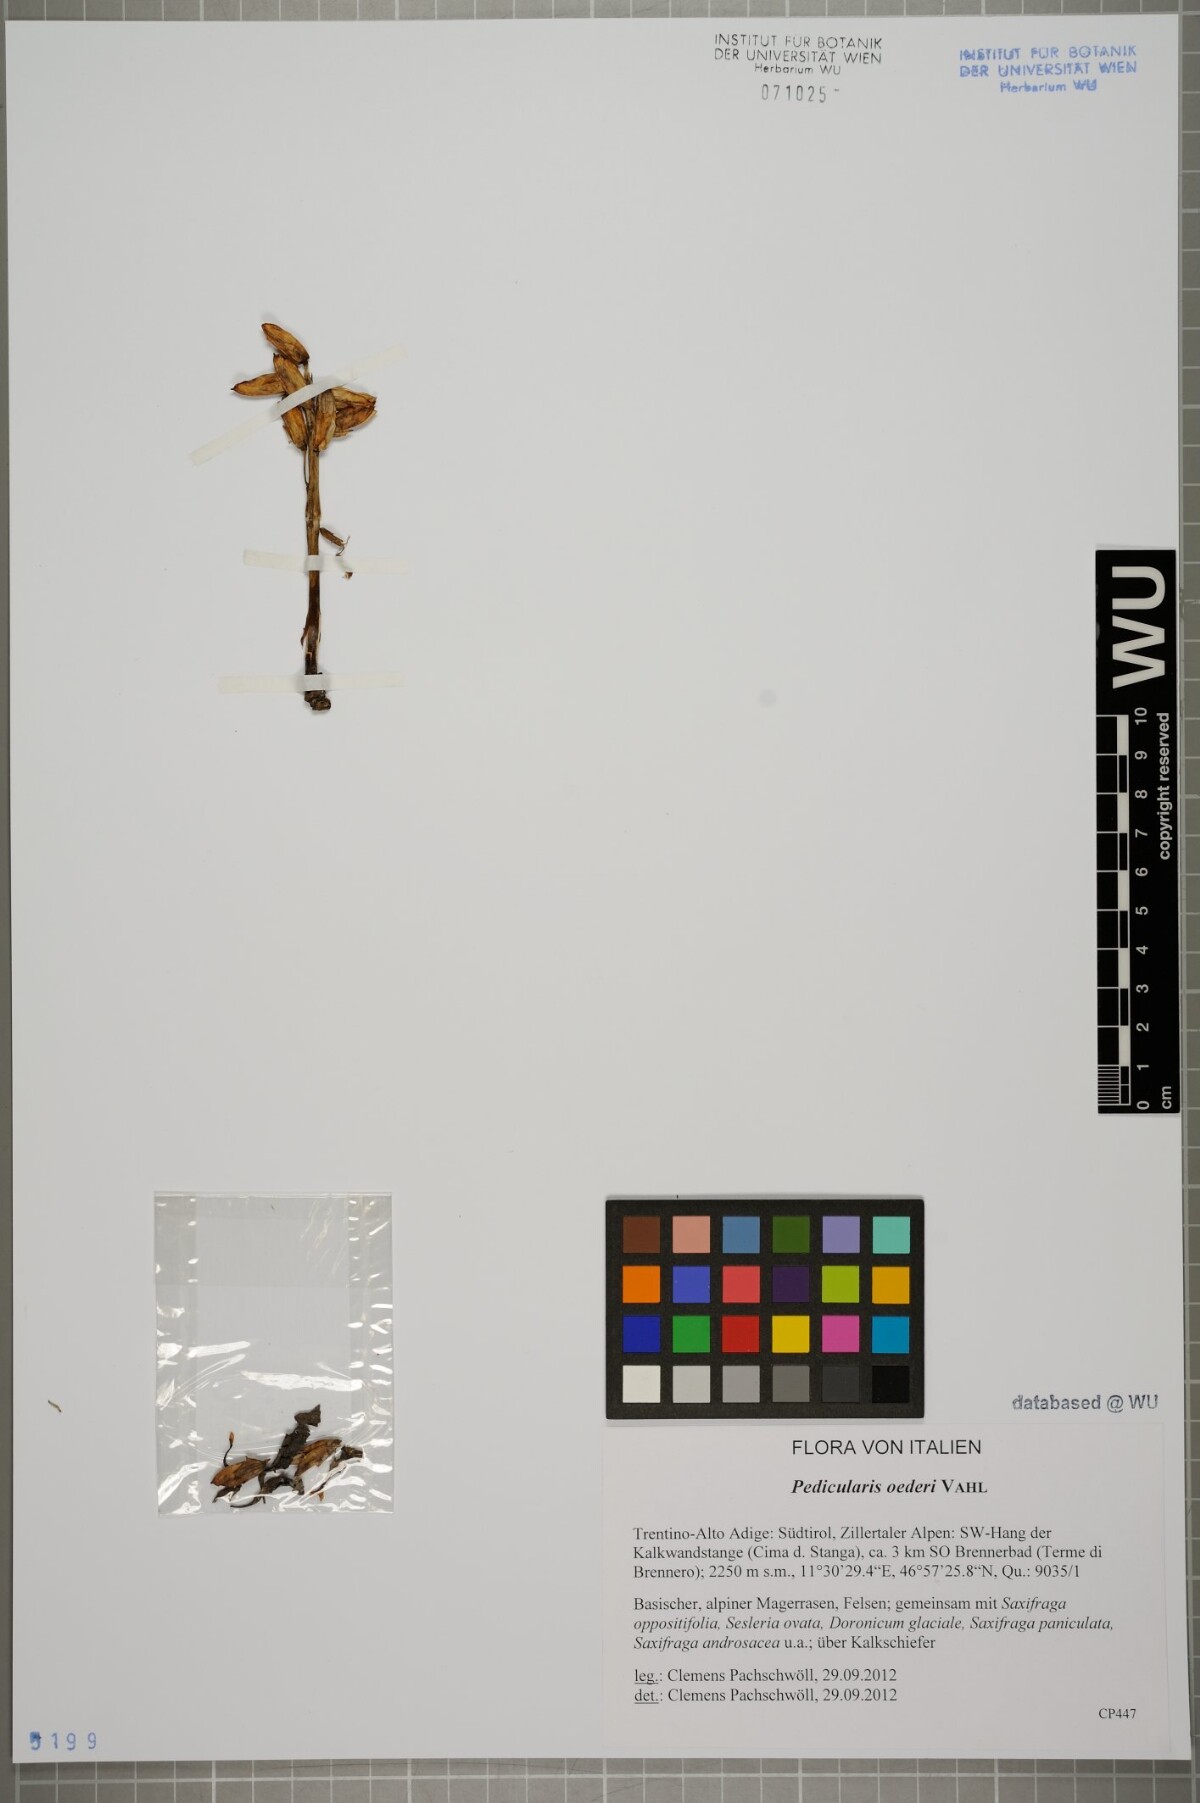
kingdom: Plantae
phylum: Tracheophyta
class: Magnoliopsida
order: Lamiales
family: Orobanchaceae
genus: Pedicularis
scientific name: Pedicularis oederi
